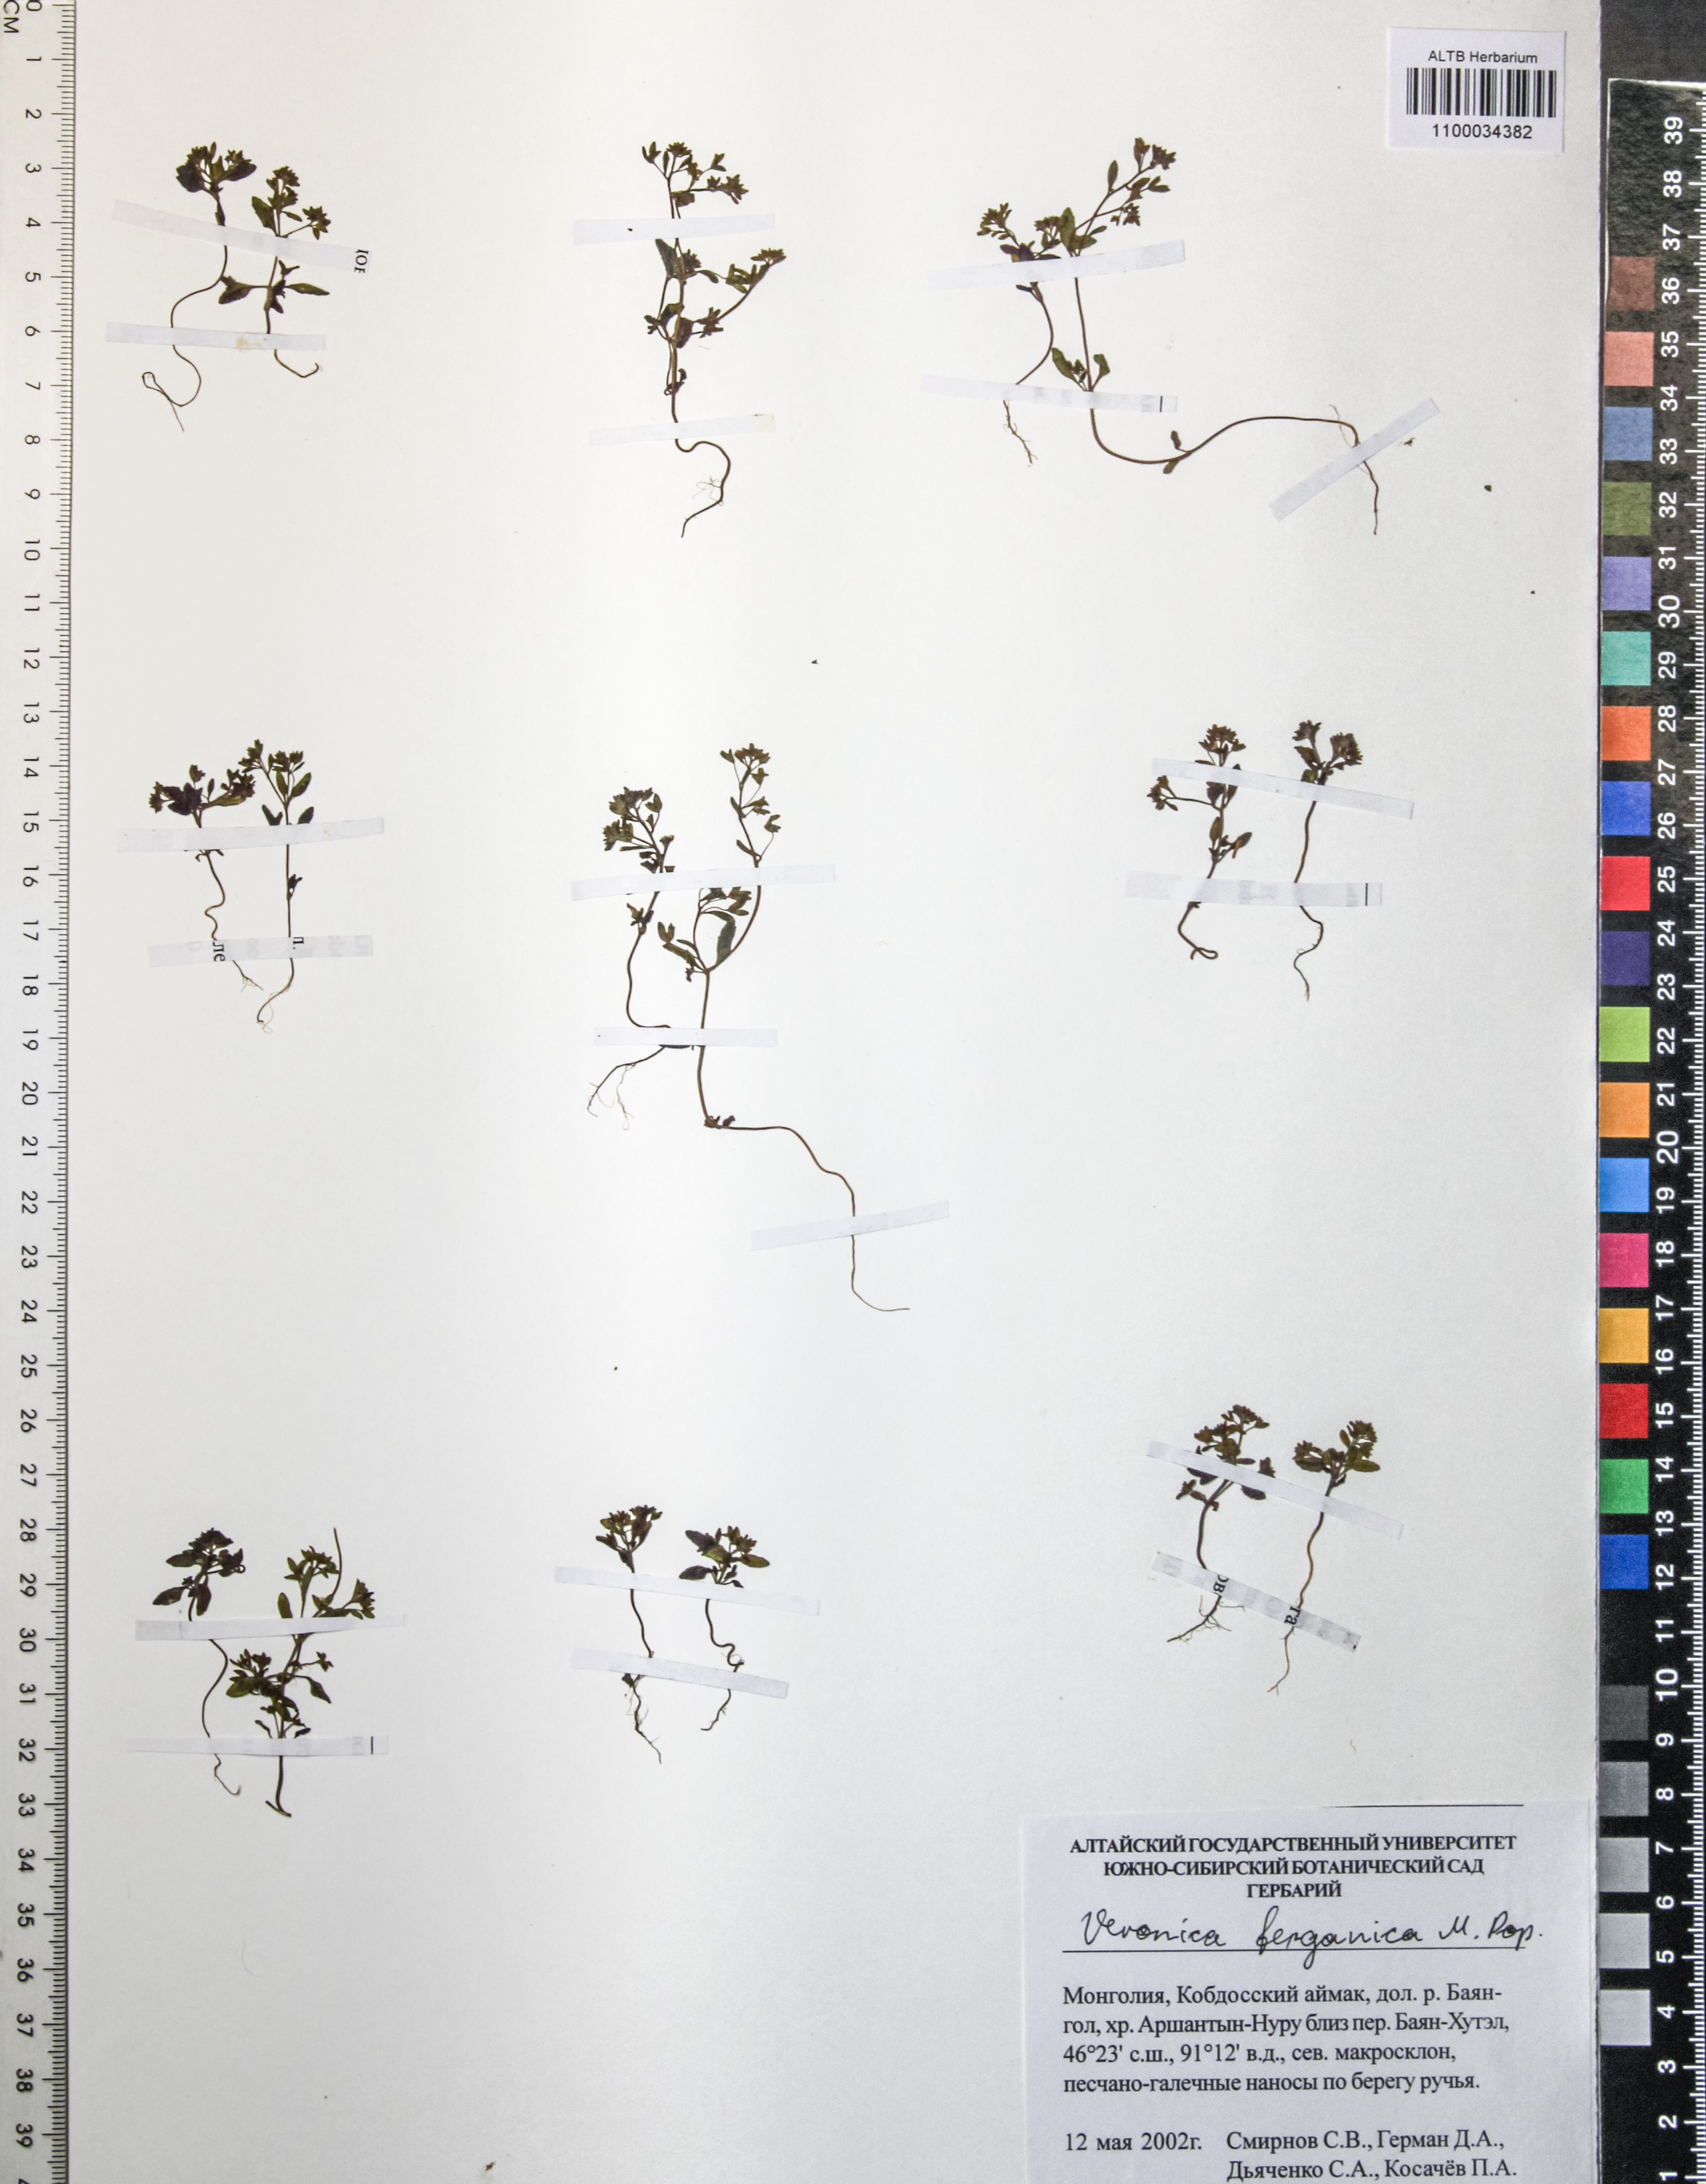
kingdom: Plantae
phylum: Tracheophyta
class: Magnoliopsida
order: Lamiales
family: Plantaginaceae
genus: Veronica
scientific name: Veronica ferganica
